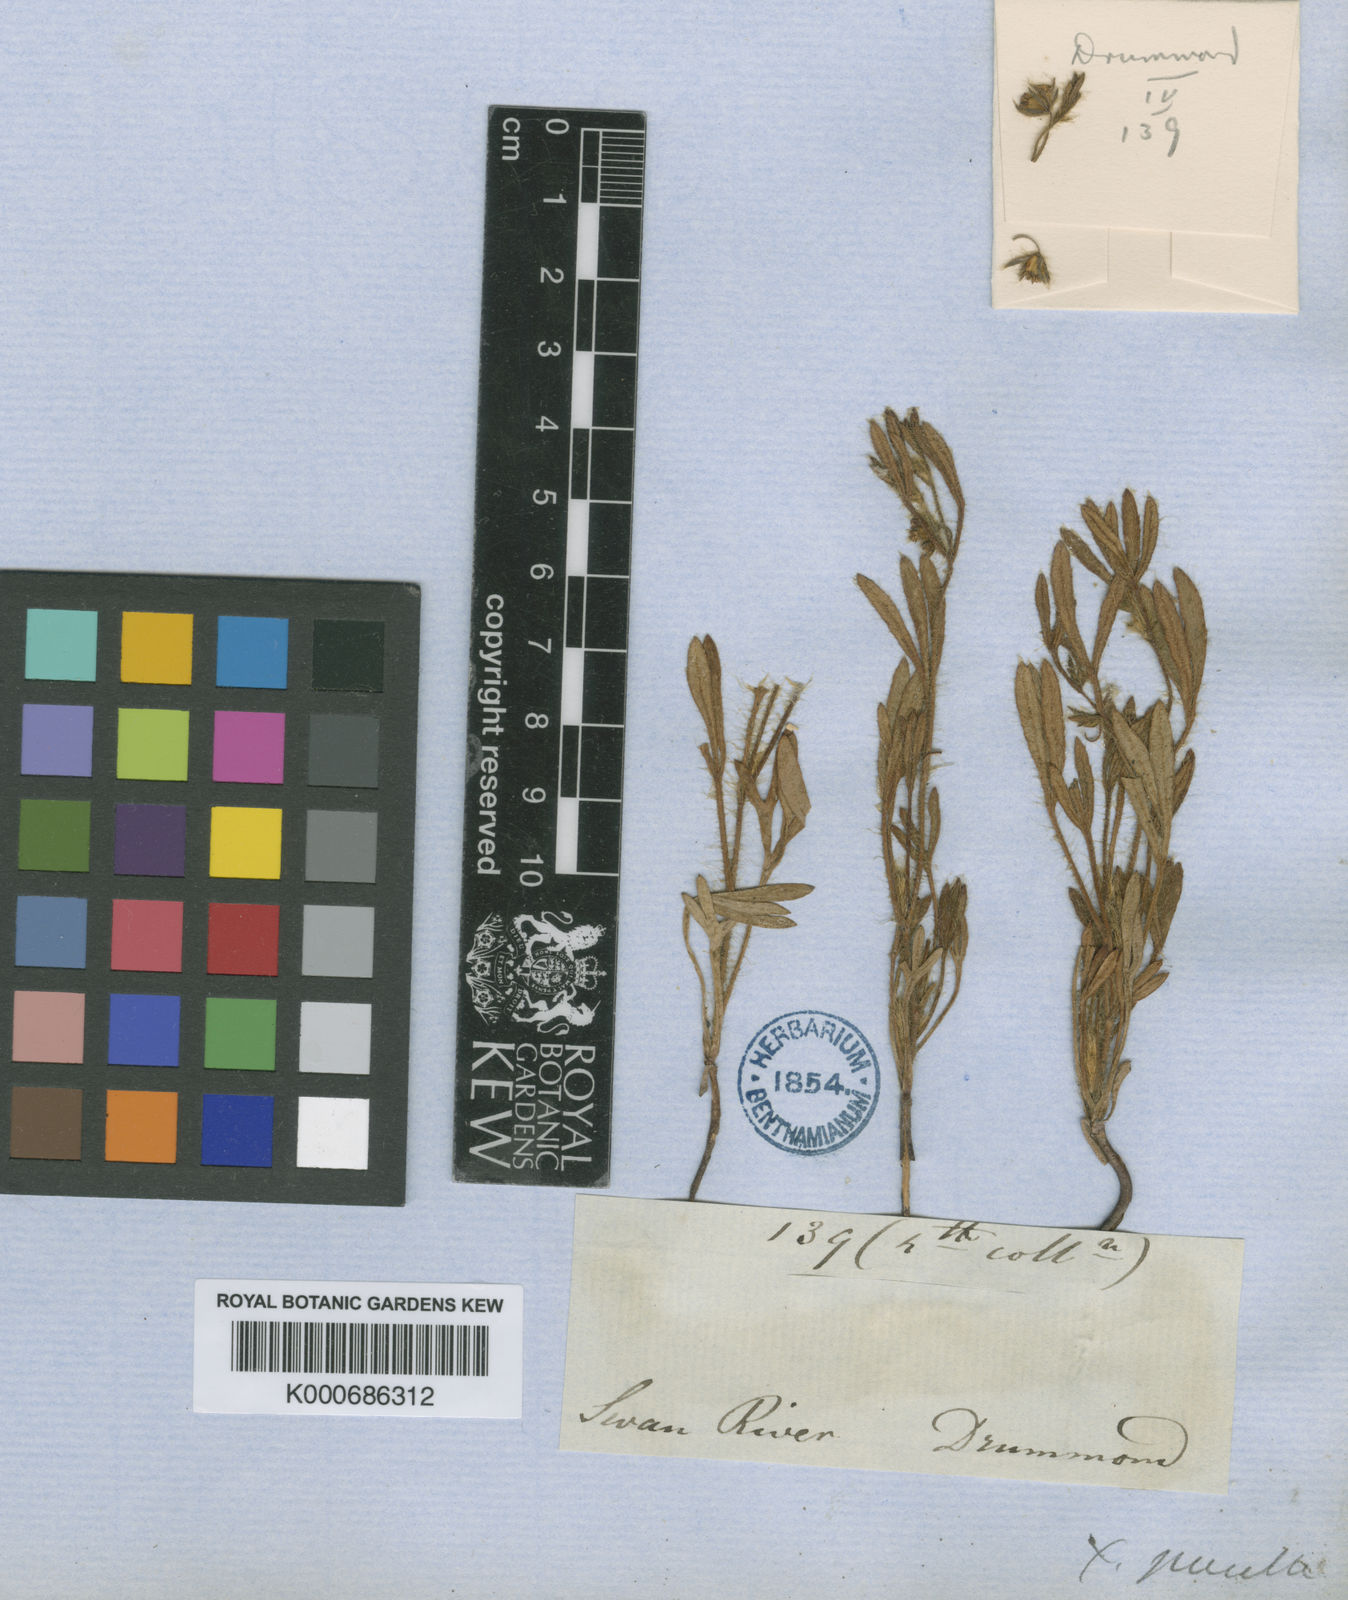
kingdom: Plantae
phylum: Tracheophyta
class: Magnoliopsida
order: Apiales
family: Apiaceae
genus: Xanthosia
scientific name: Xanthosia huegelii
